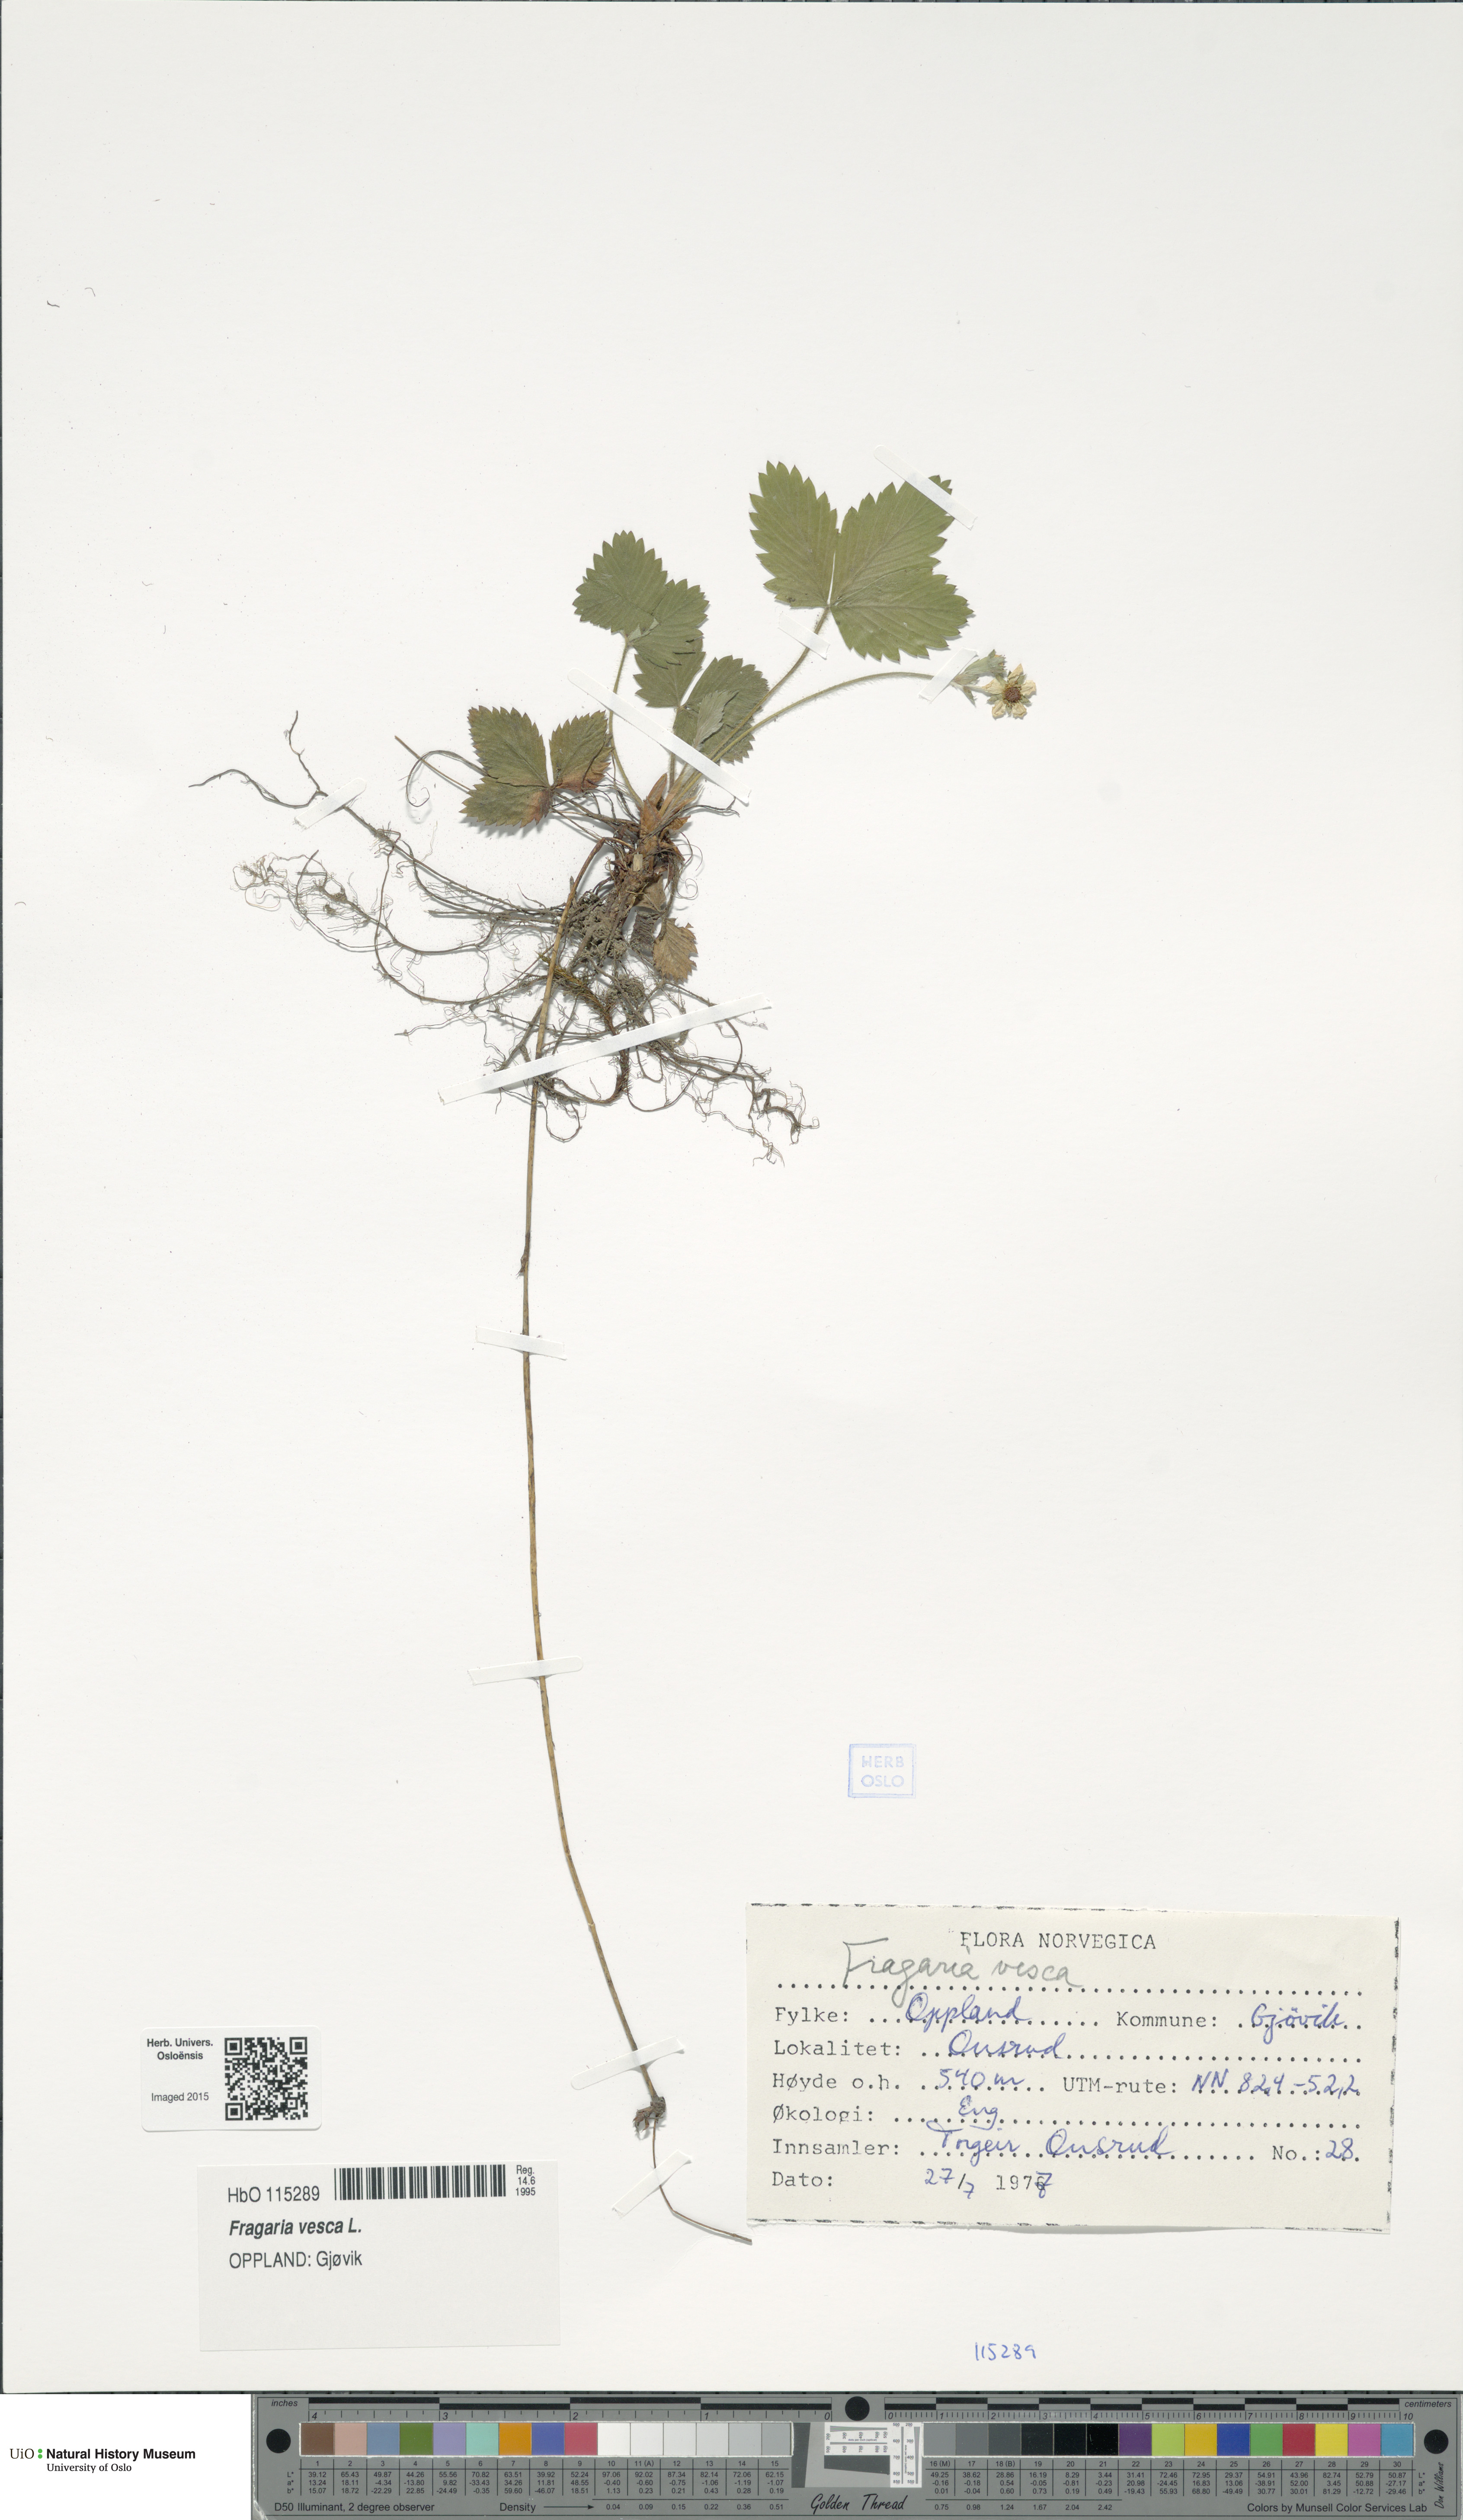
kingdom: Plantae
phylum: Tracheophyta
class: Magnoliopsida
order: Rosales
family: Rosaceae
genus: Fragaria
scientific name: Fragaria vesca
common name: Wild strawberry
